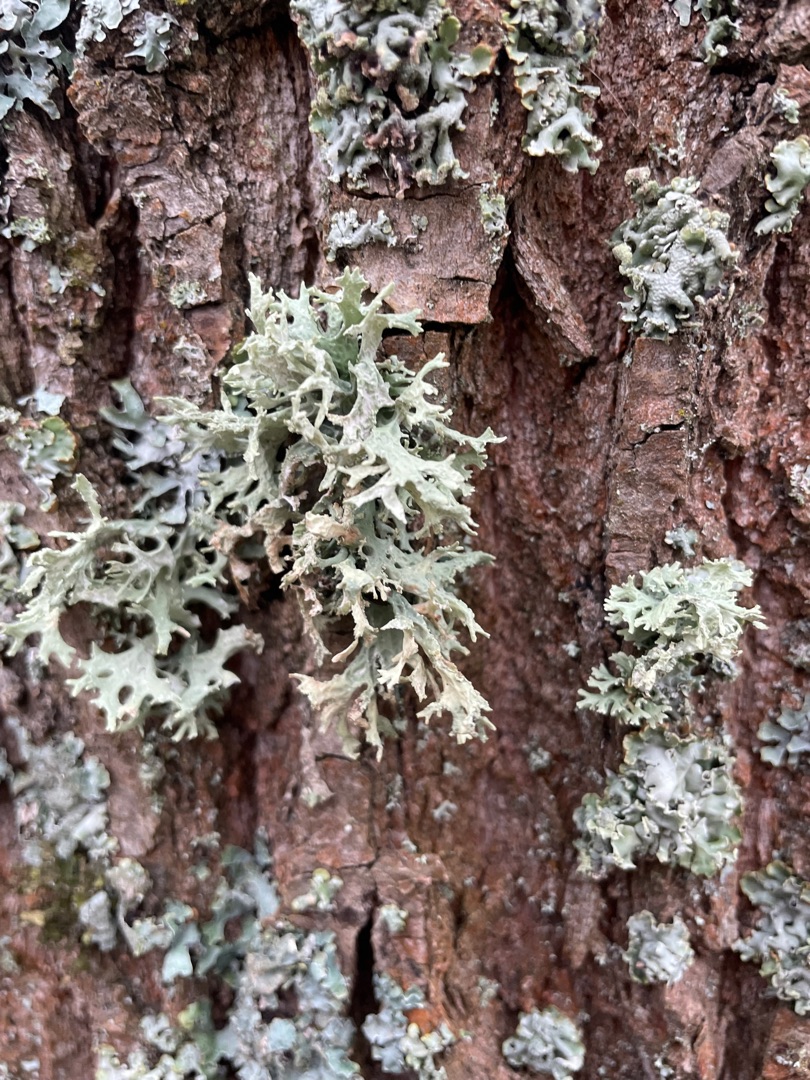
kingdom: Fungi
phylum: Ascomycota
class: Lecanoromycetes
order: Lecanorales
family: Parmeliaceae
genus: Evernia
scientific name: Evernia prunastri
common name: Almindelig slåenlav
